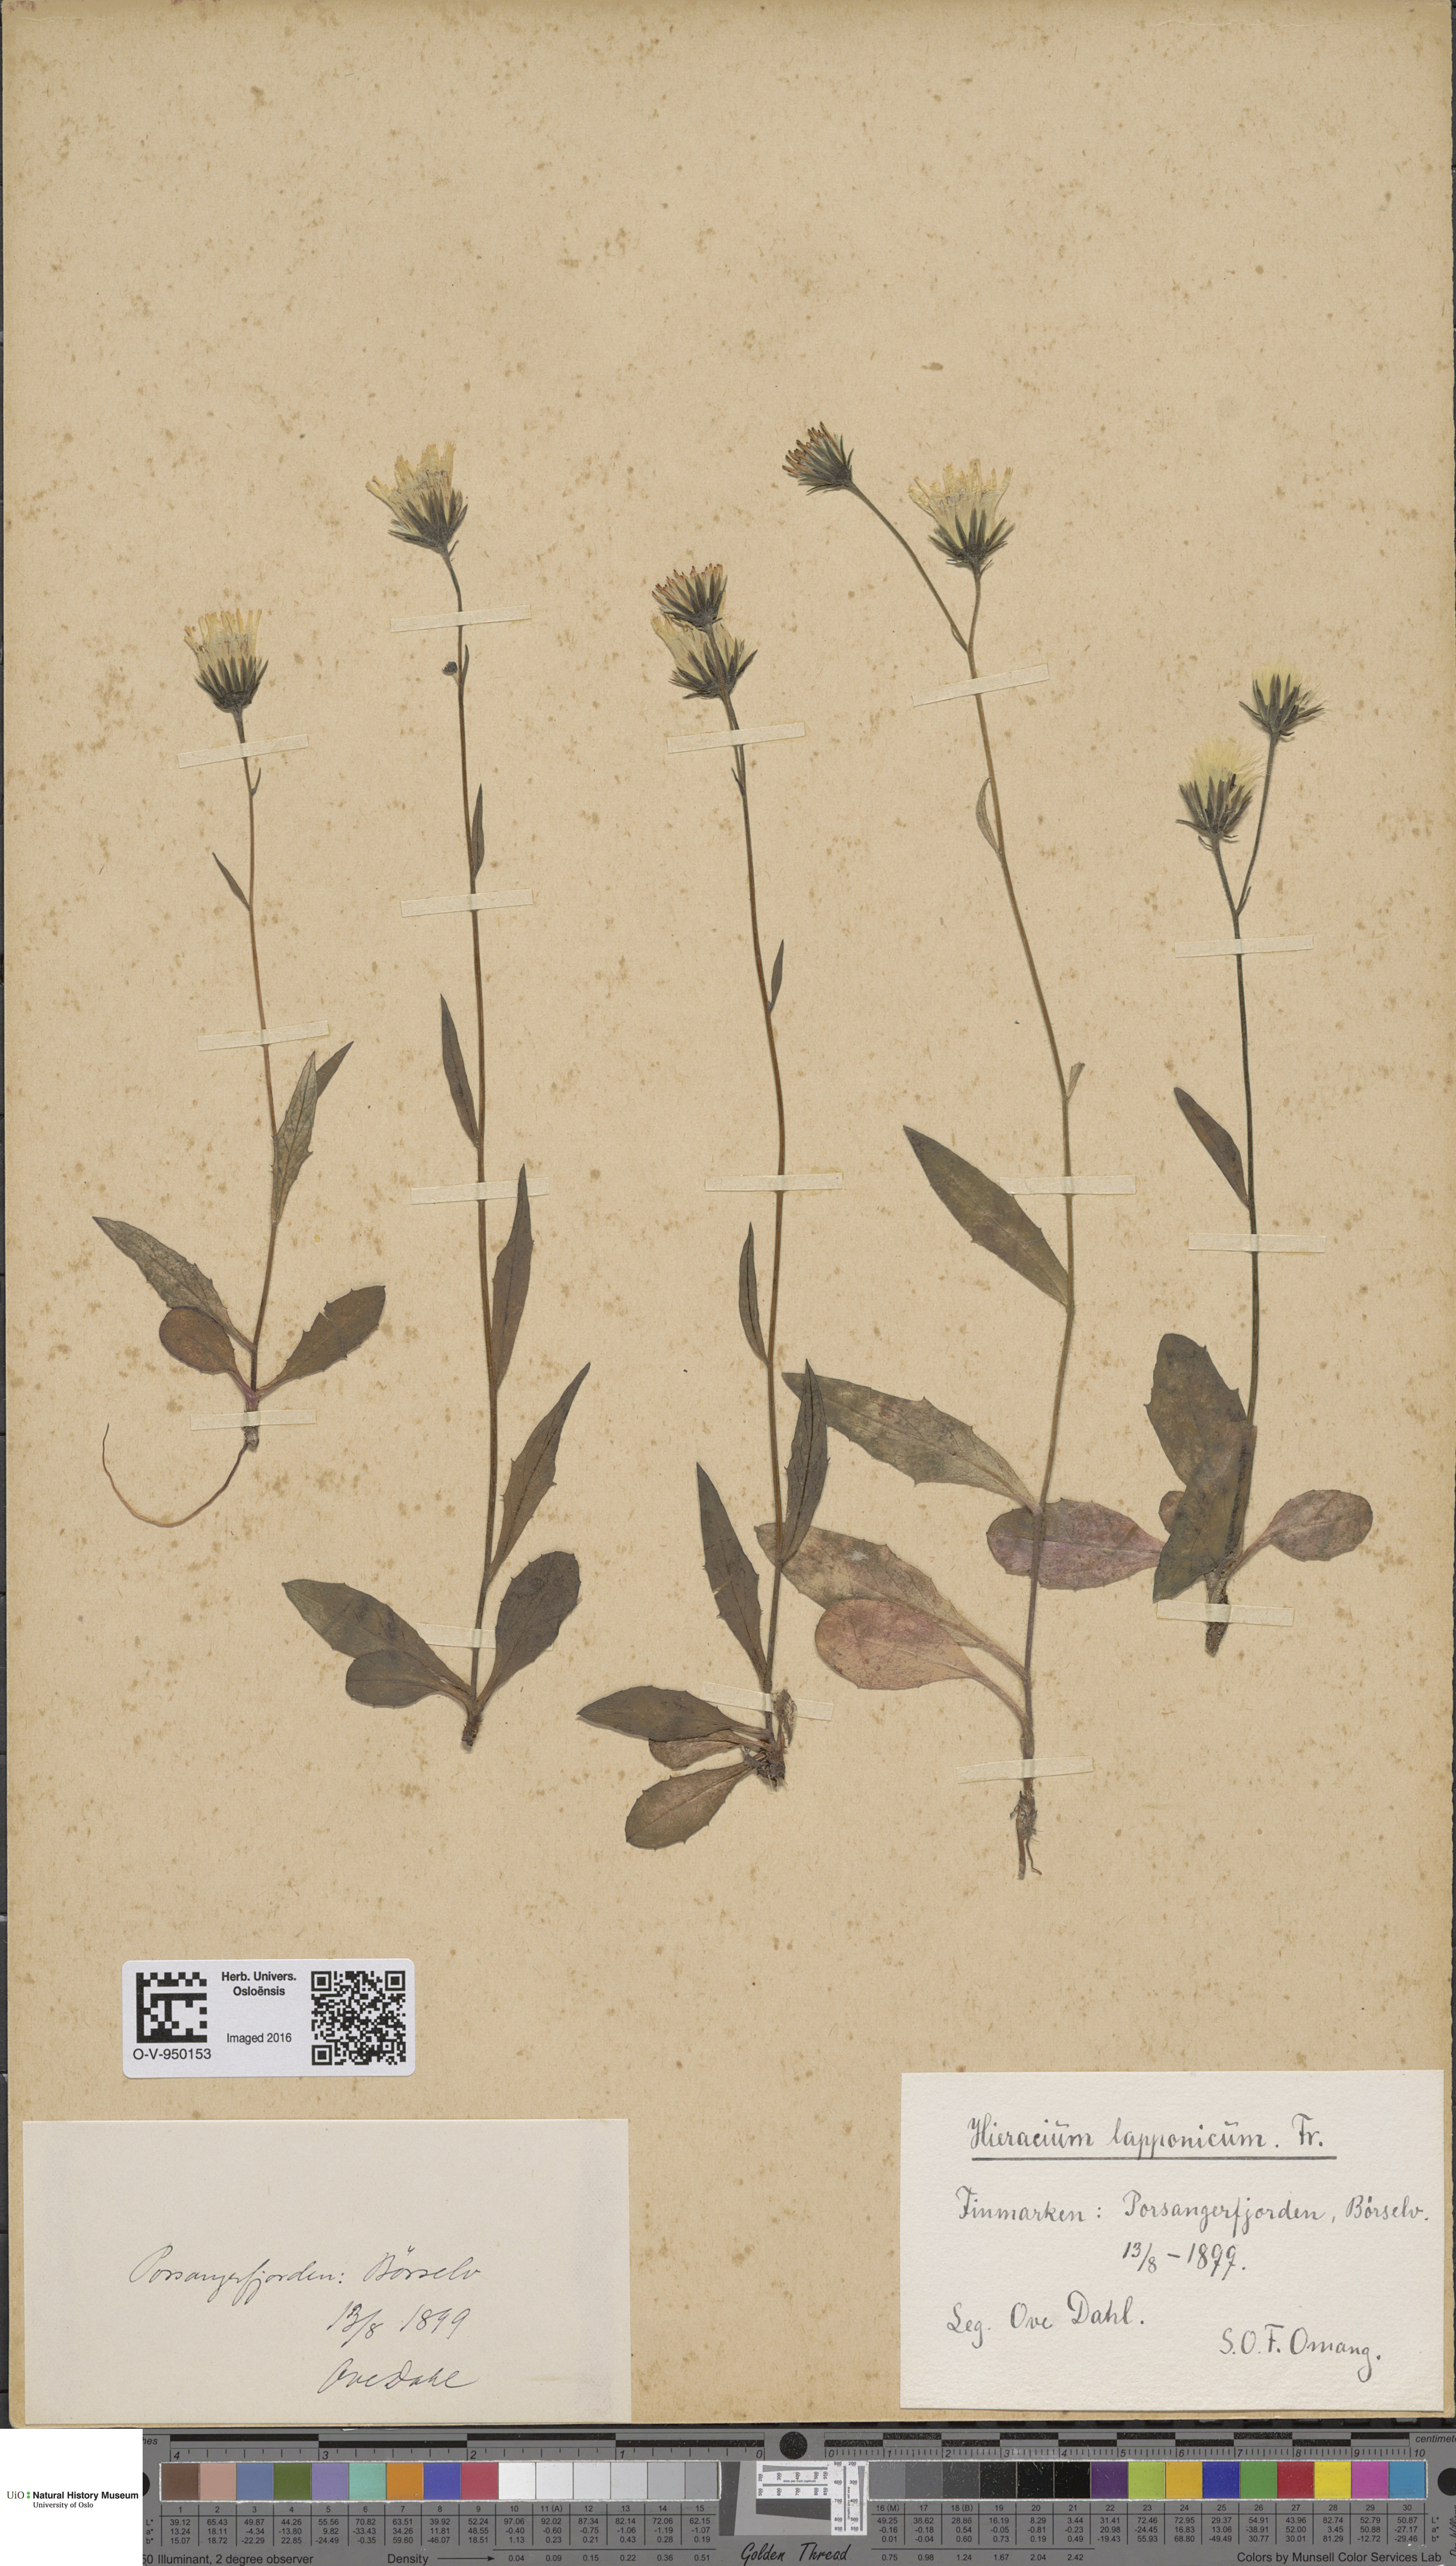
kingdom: Plantae
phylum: Tracheophyta
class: Magnoliopsida
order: Asterales
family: Asteraceae
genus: Hieracium
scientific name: Hieracium lapponicum
